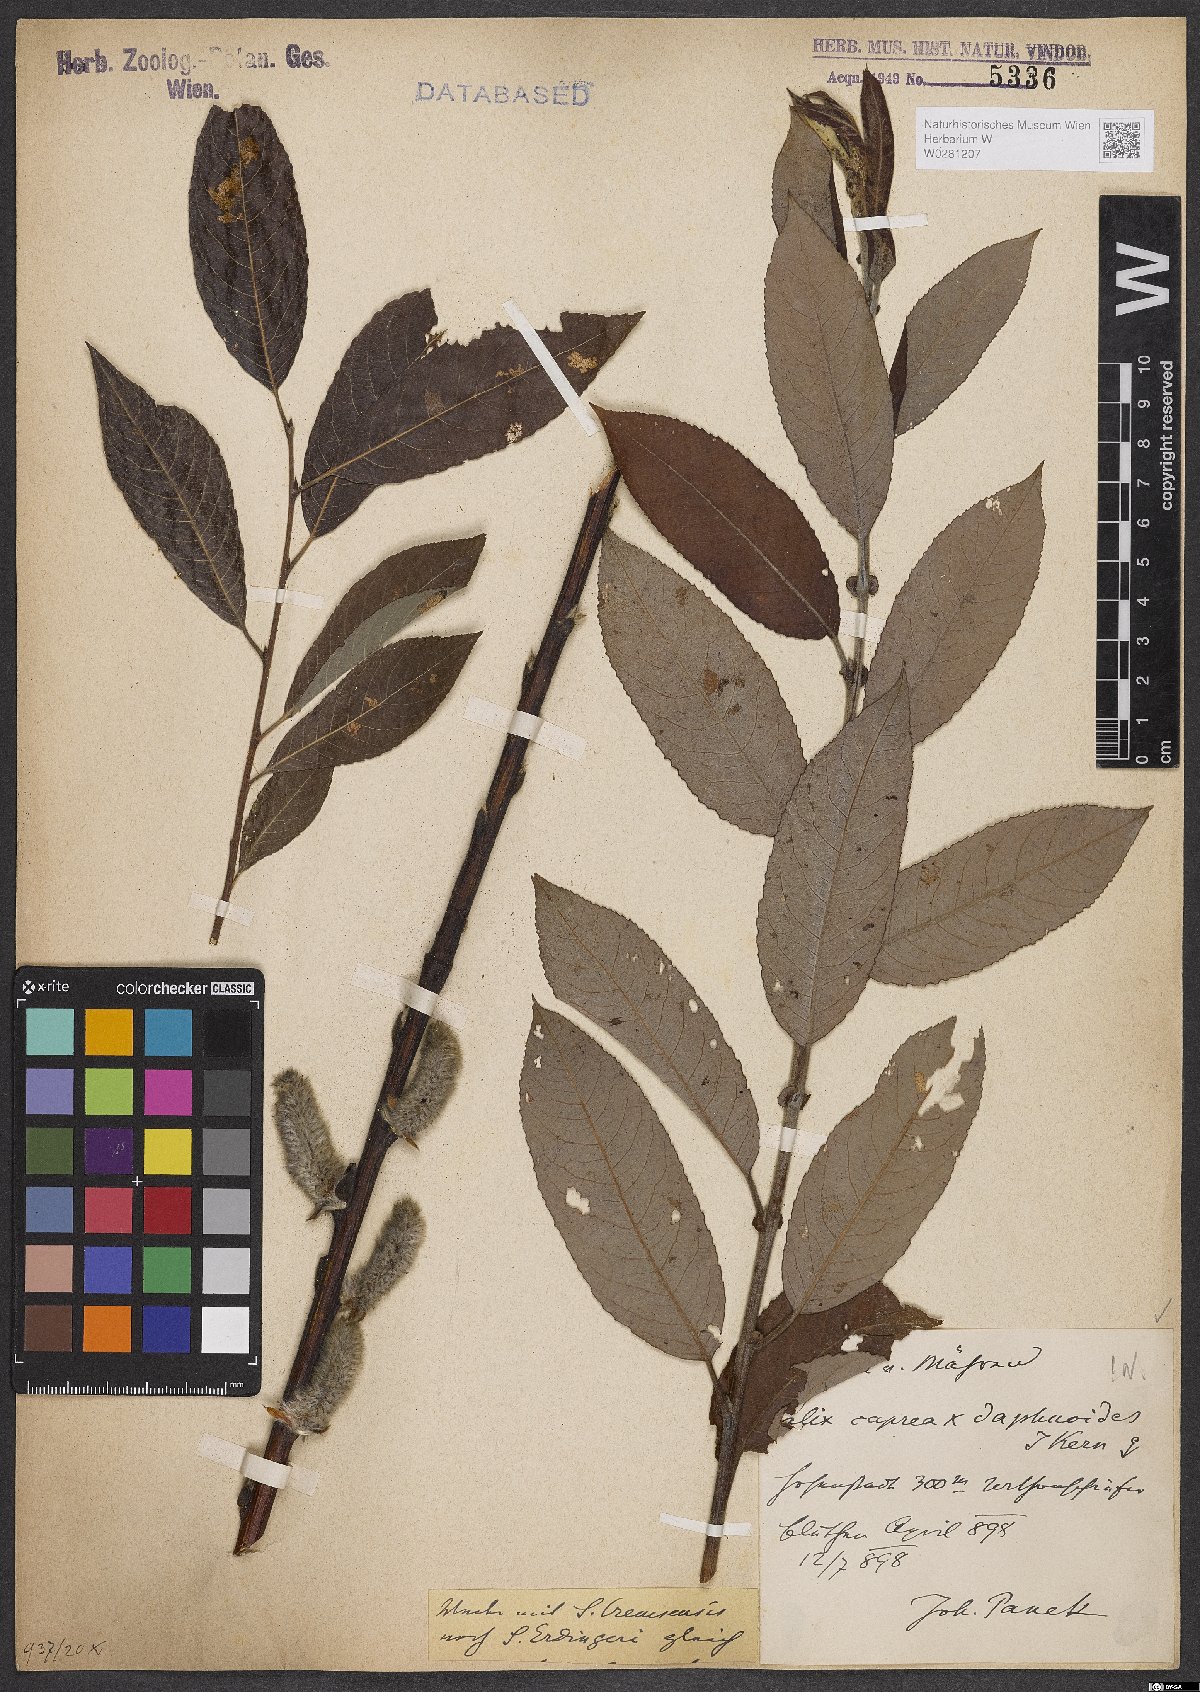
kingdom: Plantae
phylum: Tracheophyta
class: Magnoliopsida
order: Malpighiales
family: Salicaceae
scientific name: Salicaceae
